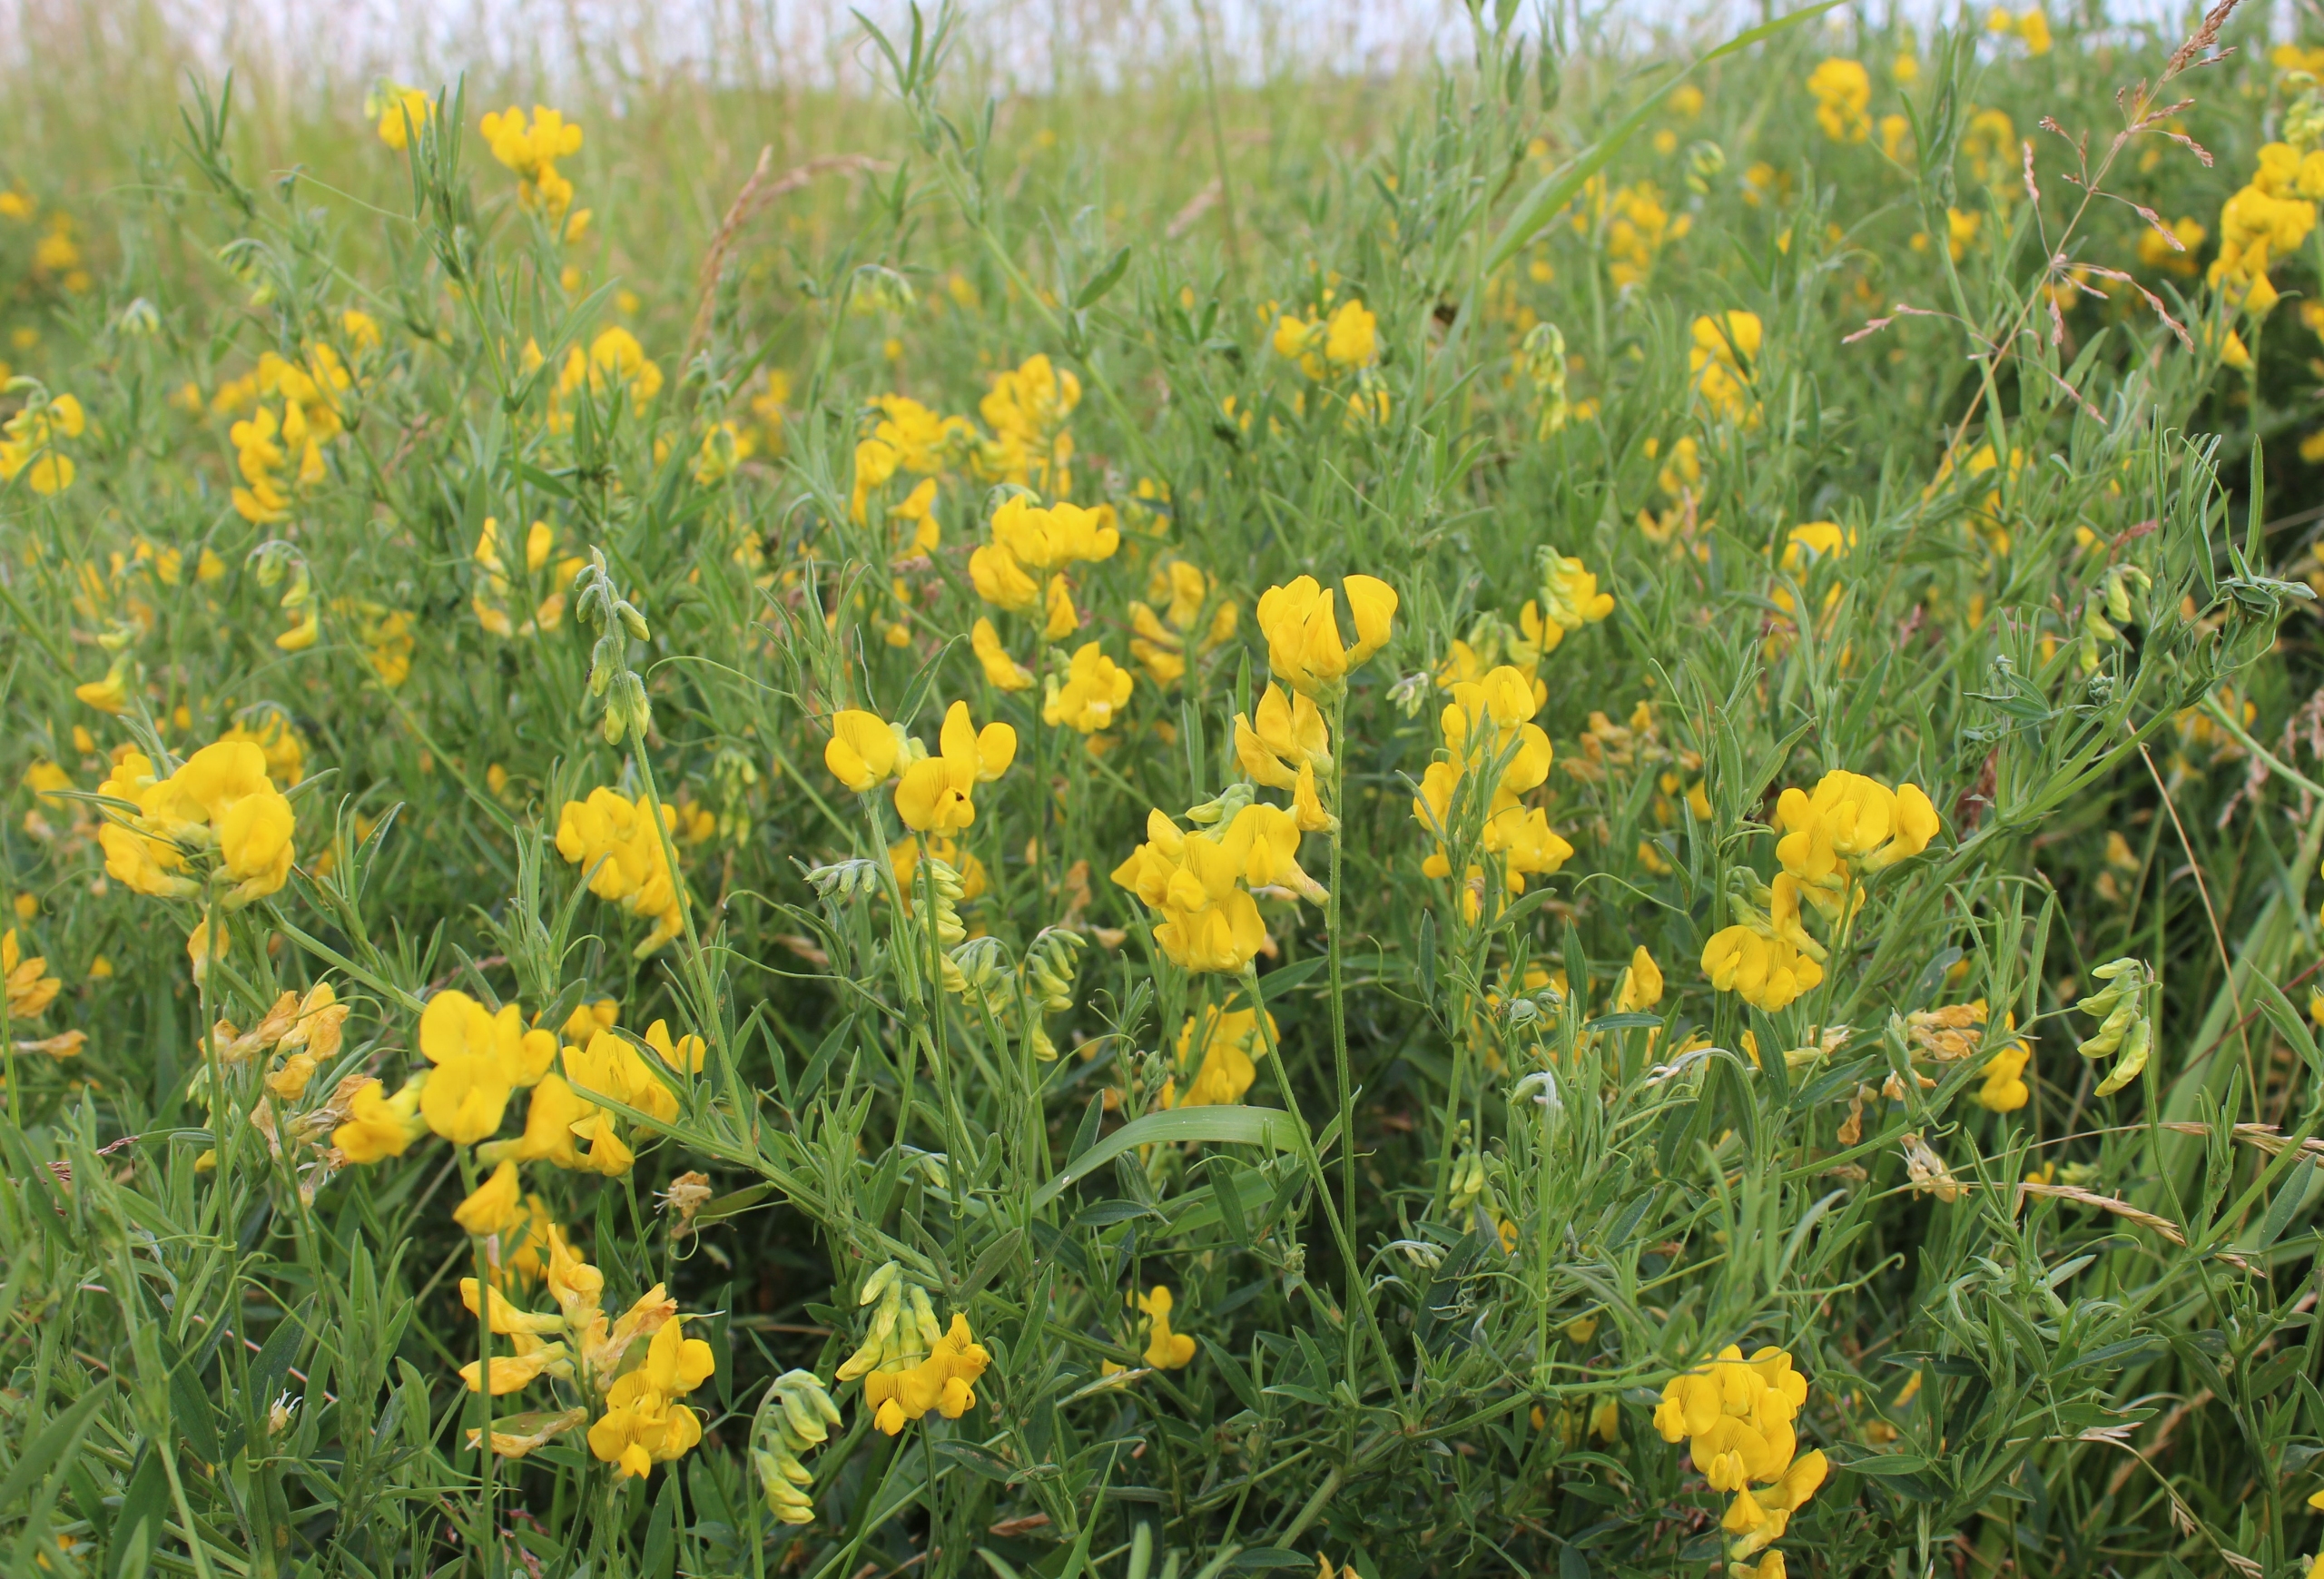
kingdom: Plantae
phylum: Tracheophyta
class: Magnoliopsida
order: Fabales
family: Fabaceae
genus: Lathyrus
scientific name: Lathyrus pratensis
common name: Gul fladbælg
